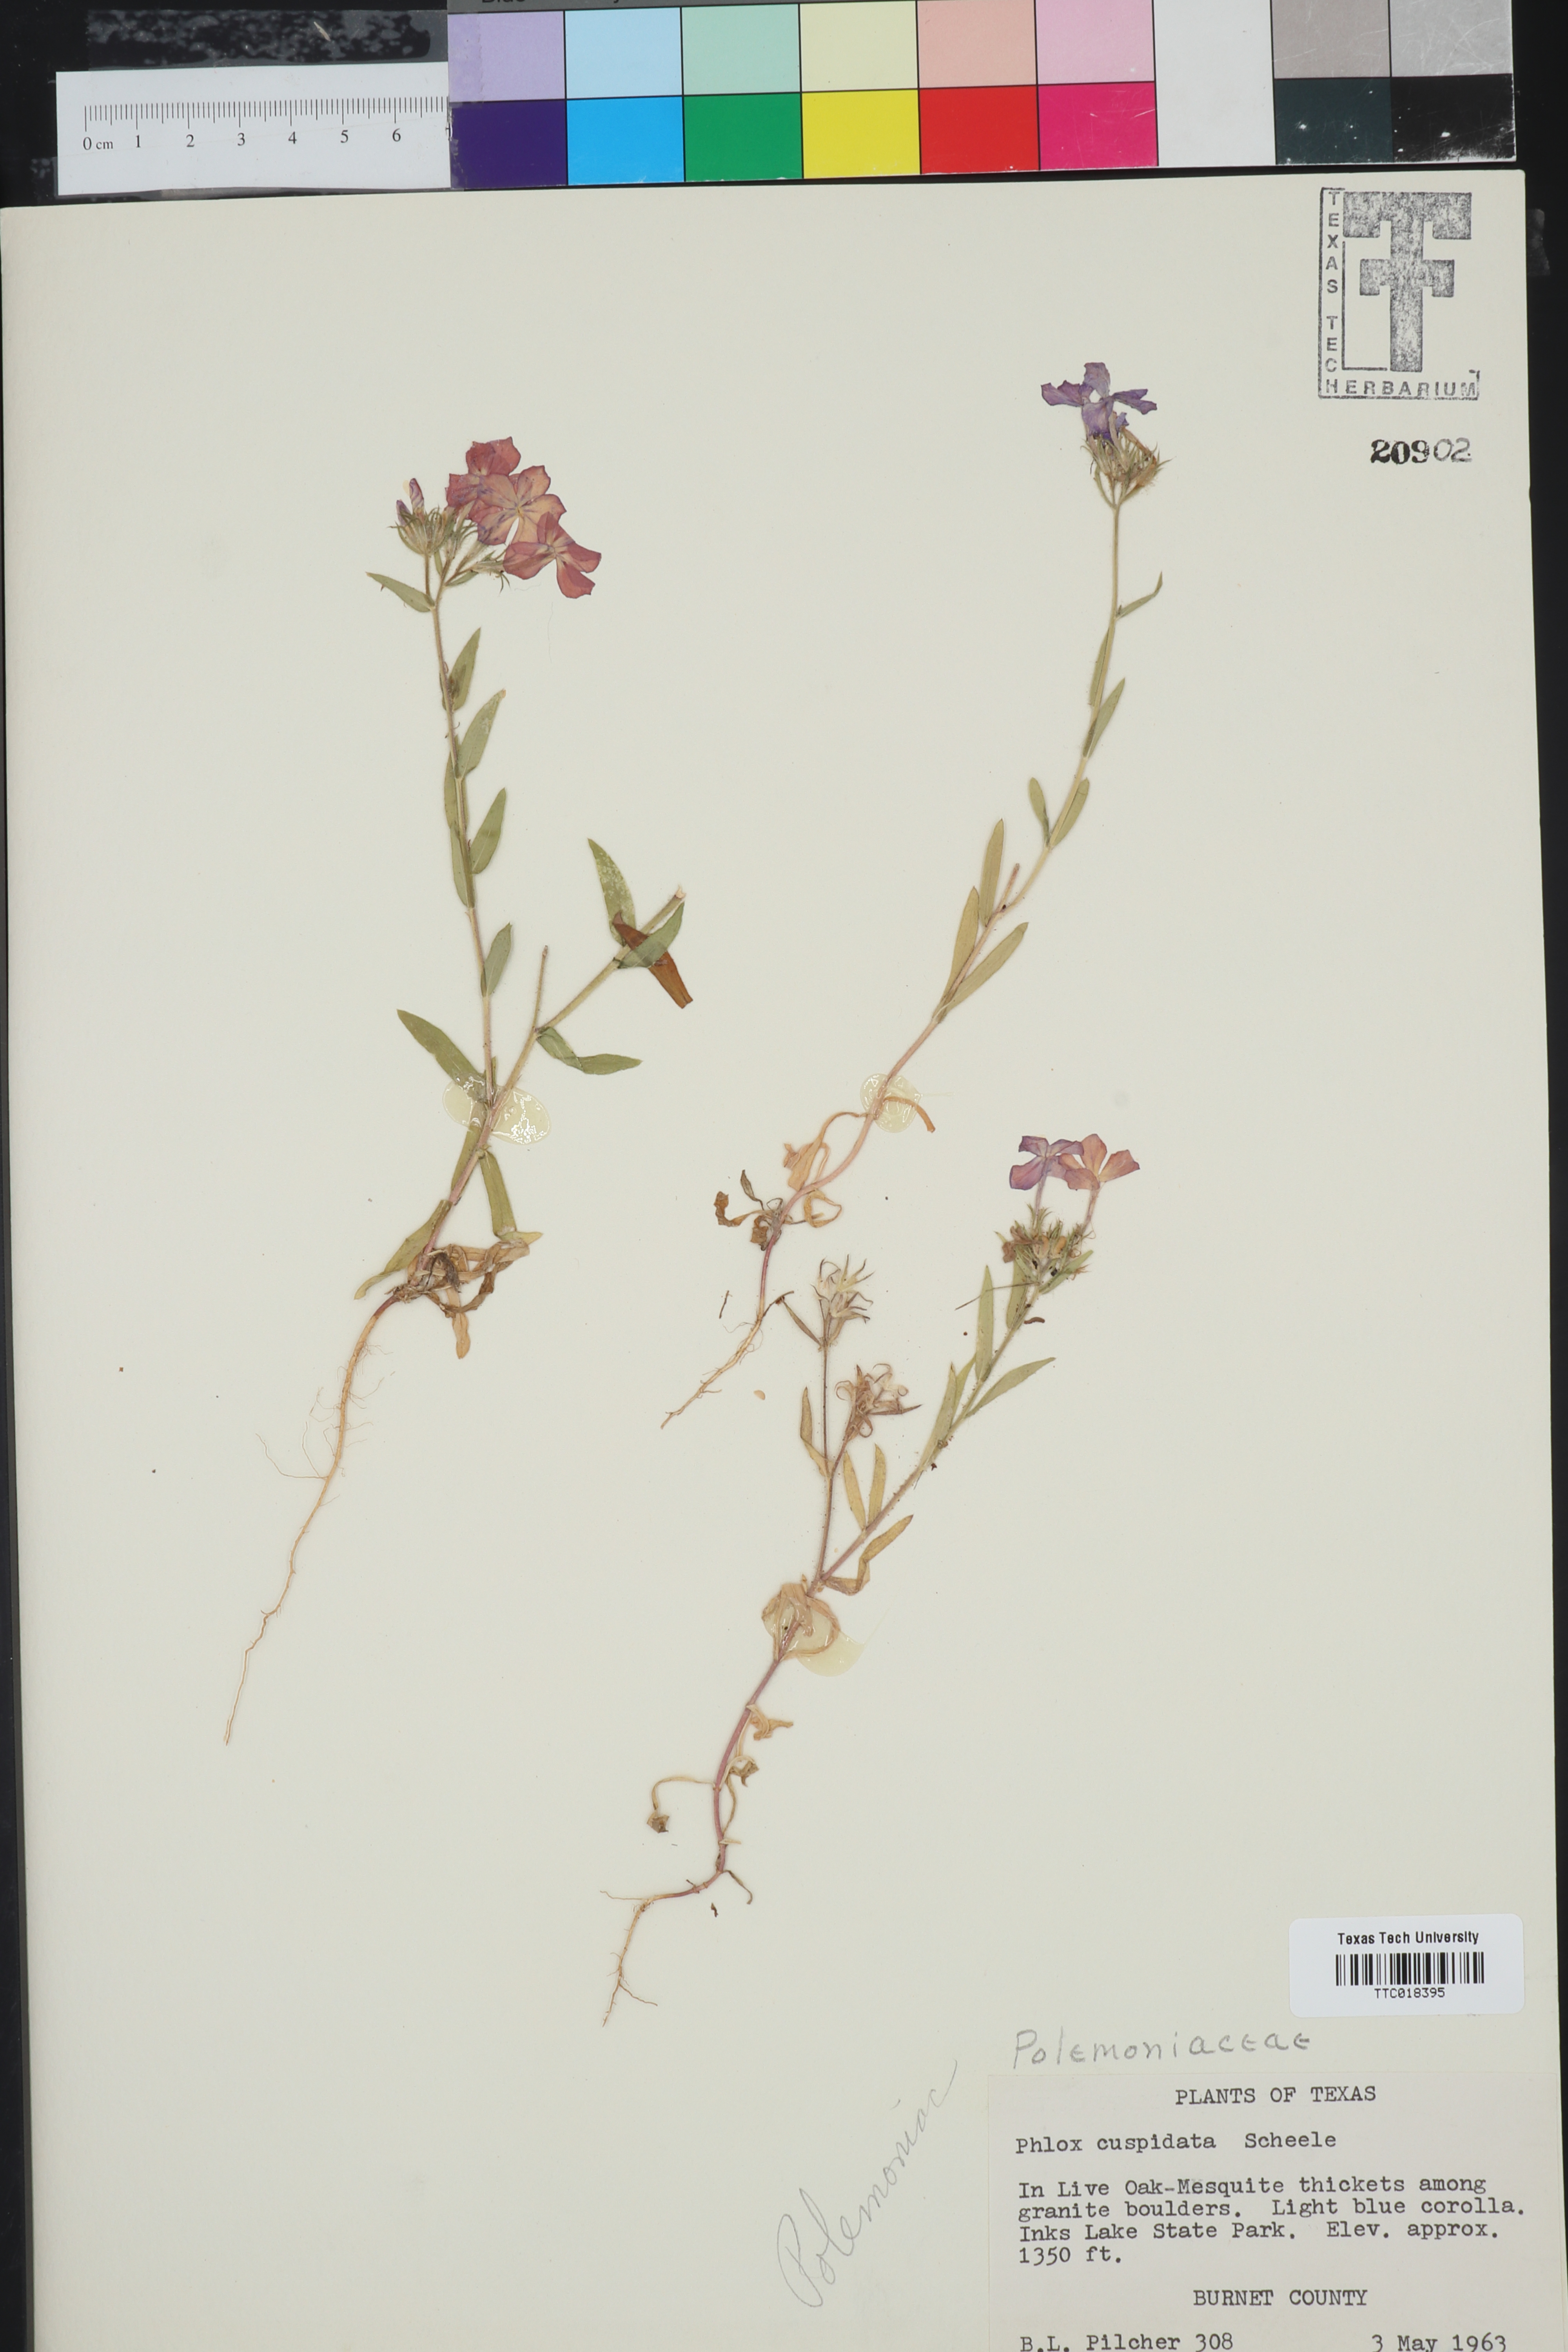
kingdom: Plantae
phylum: Tracheophyta
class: Magnoliopsida
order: Ericales
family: Polemoniaceae
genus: Phlox
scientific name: Phlox cuspidata
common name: Pointed phlox
